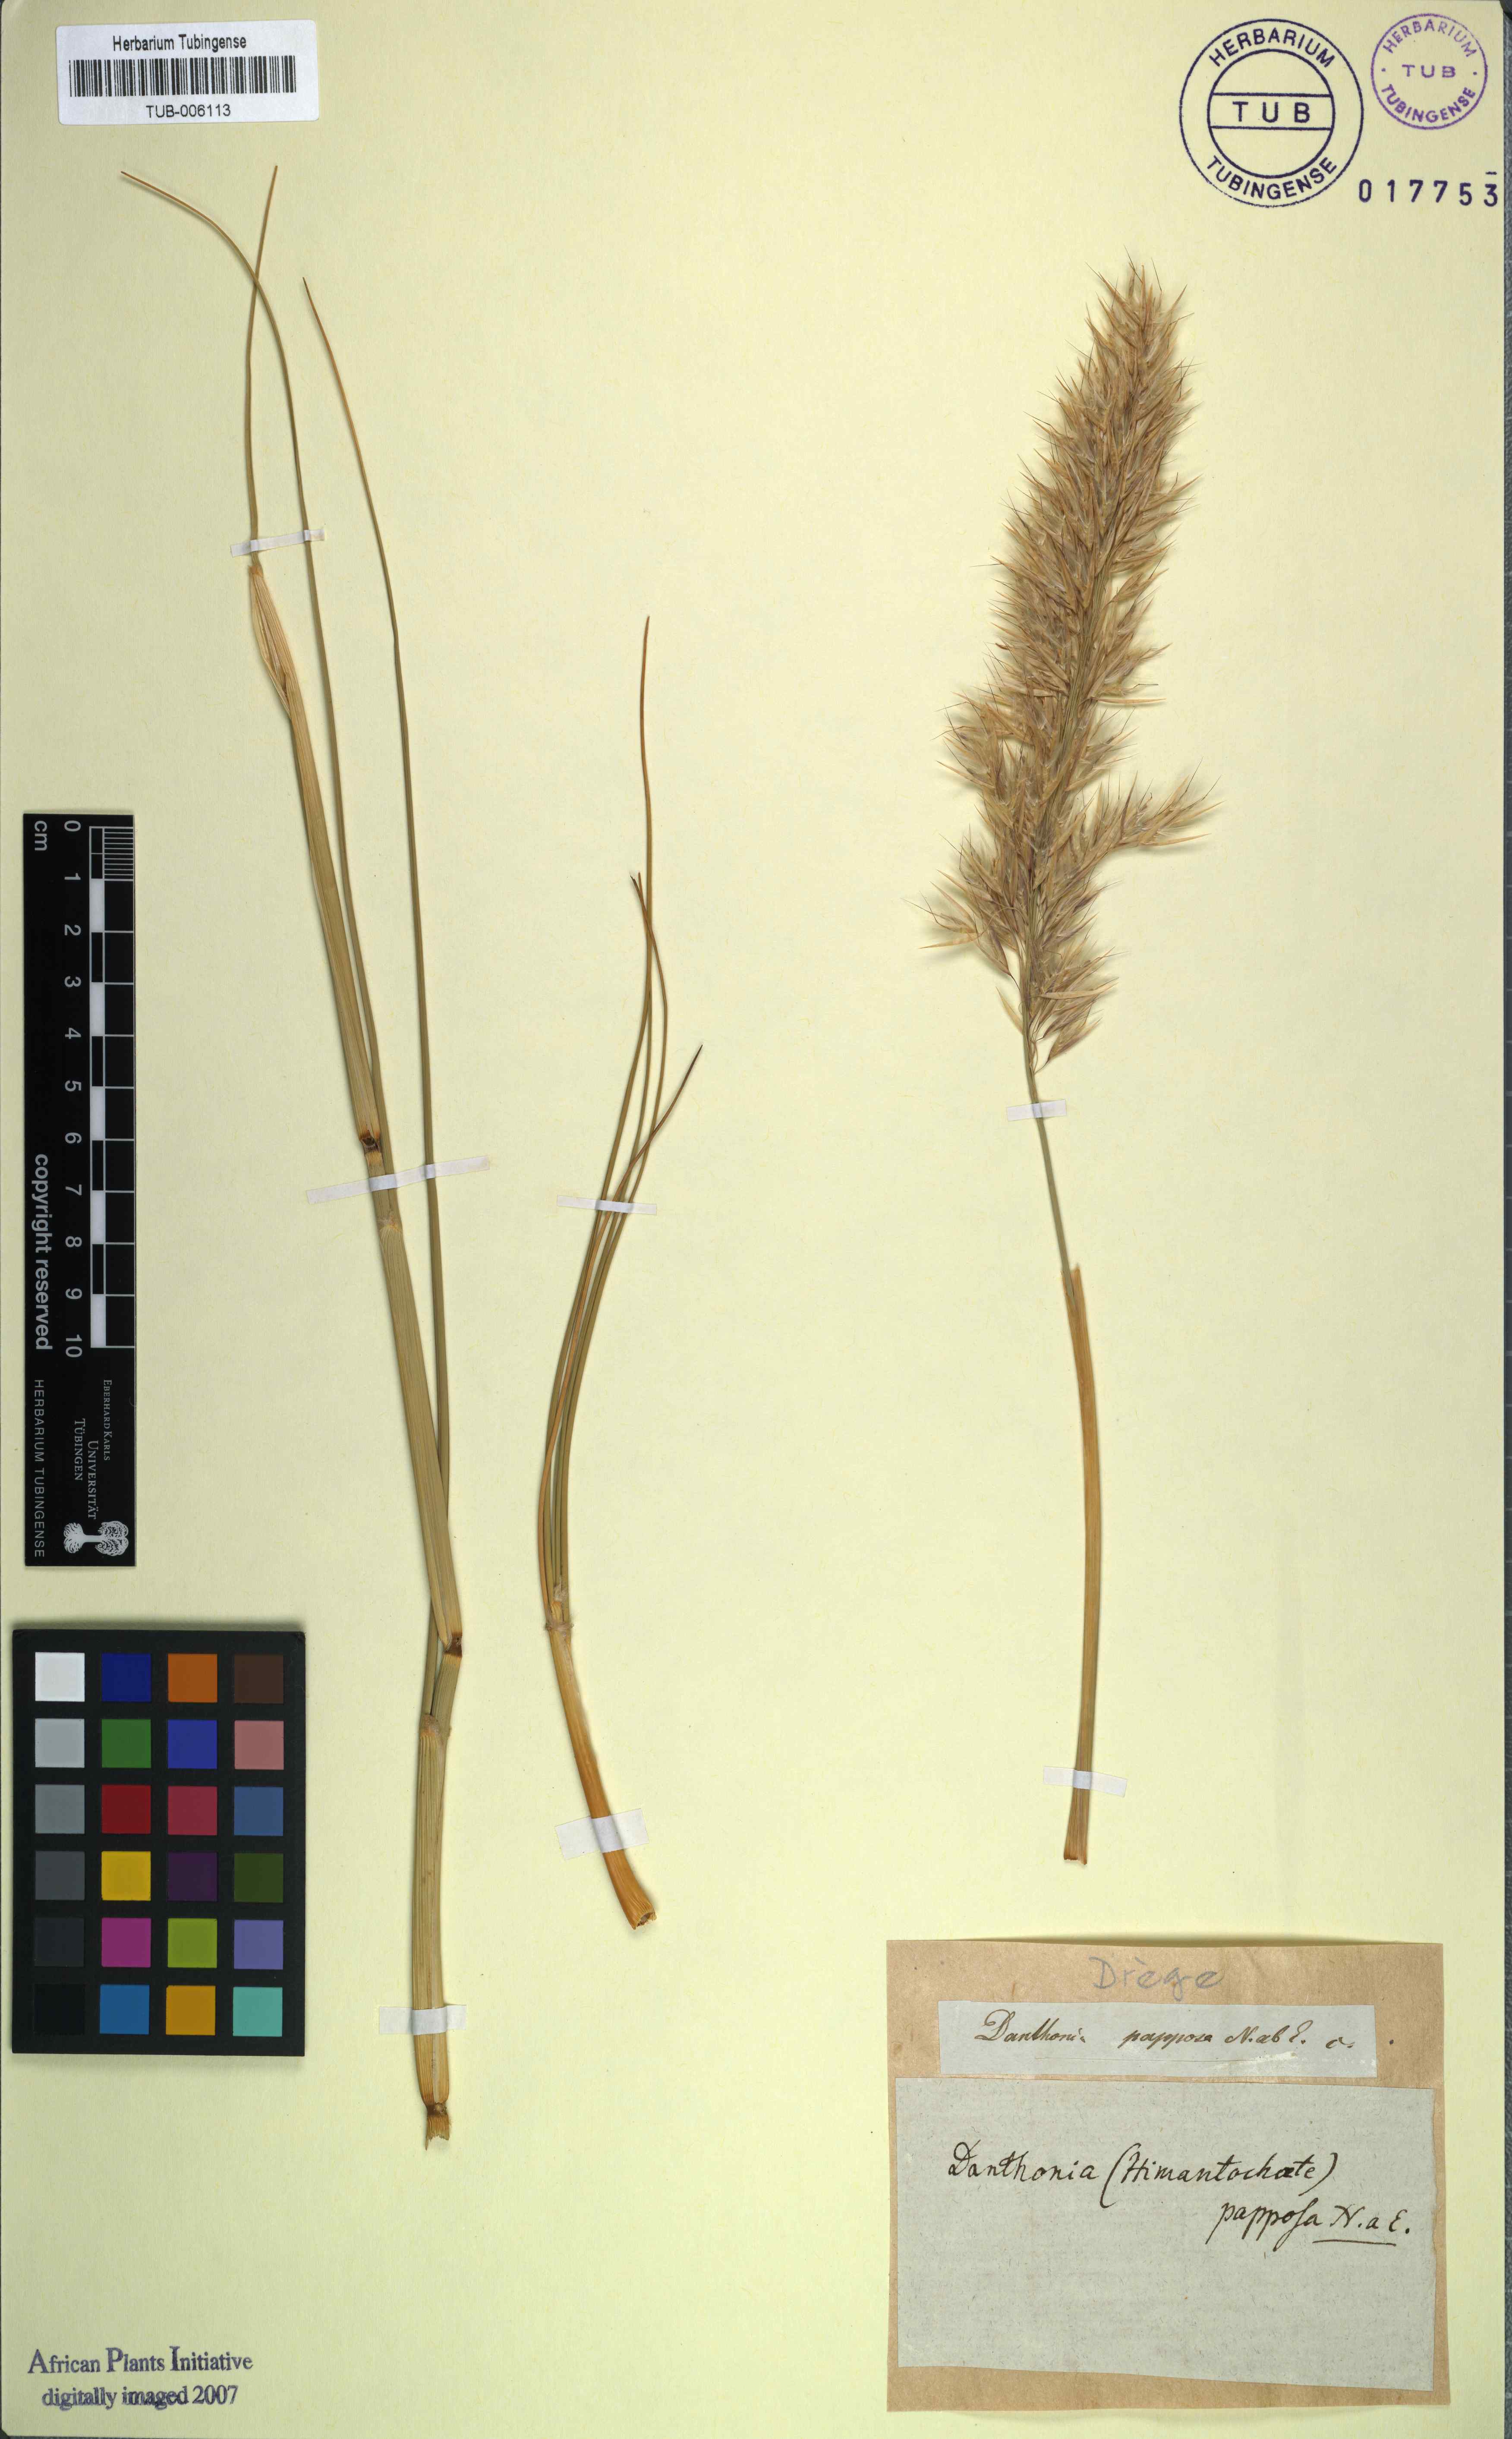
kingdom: Plantae
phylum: Tracheophyta
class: Liliopsida
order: Poales
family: Poaceae
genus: Ellisochloa
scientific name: Ellisochloa papposa
